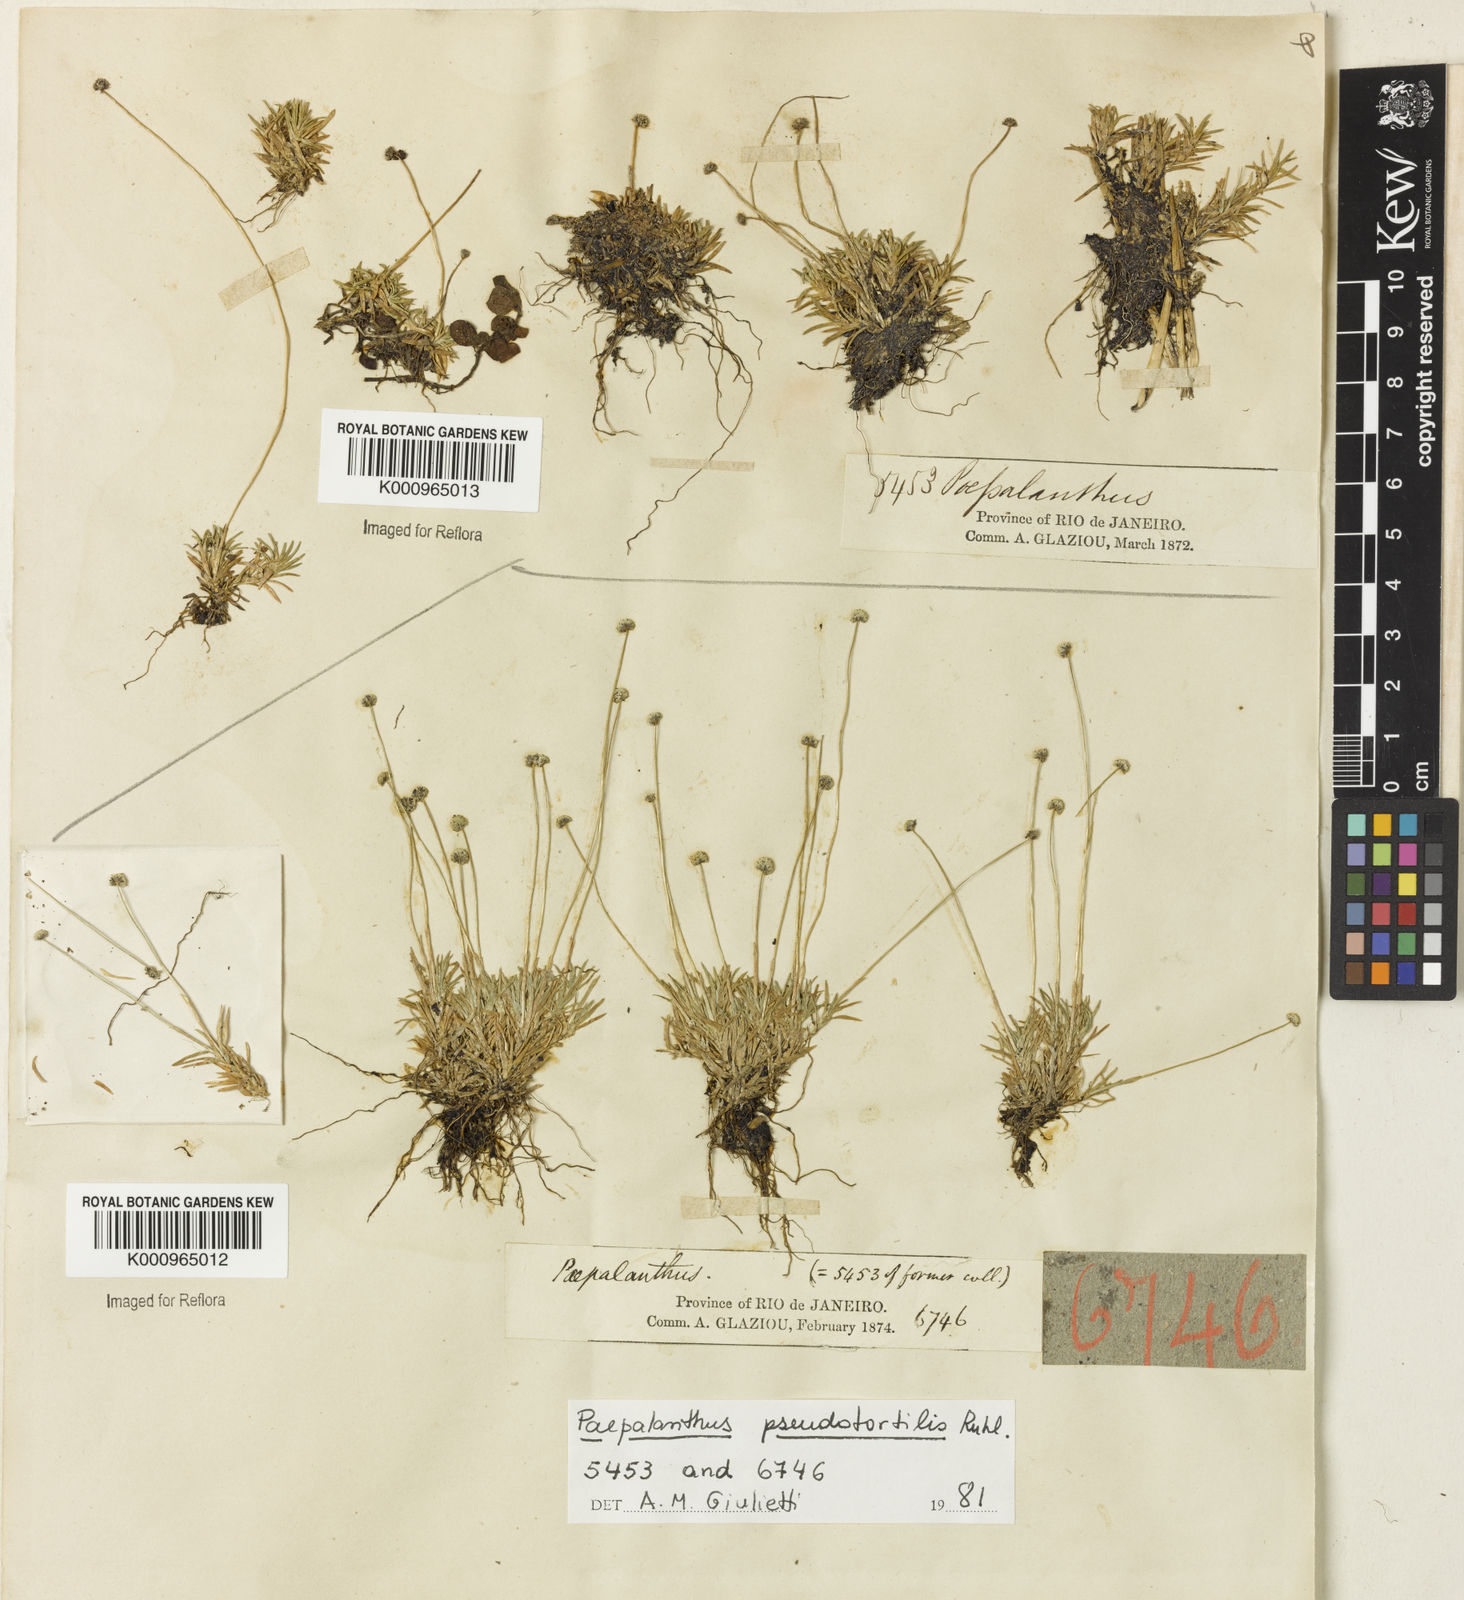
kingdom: Plantae
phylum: Tracheophyta
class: Liliopsida
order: Poales
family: Eriocaulaceae
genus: Paepalanthus
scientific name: Paepalanthus pseudotortilis
